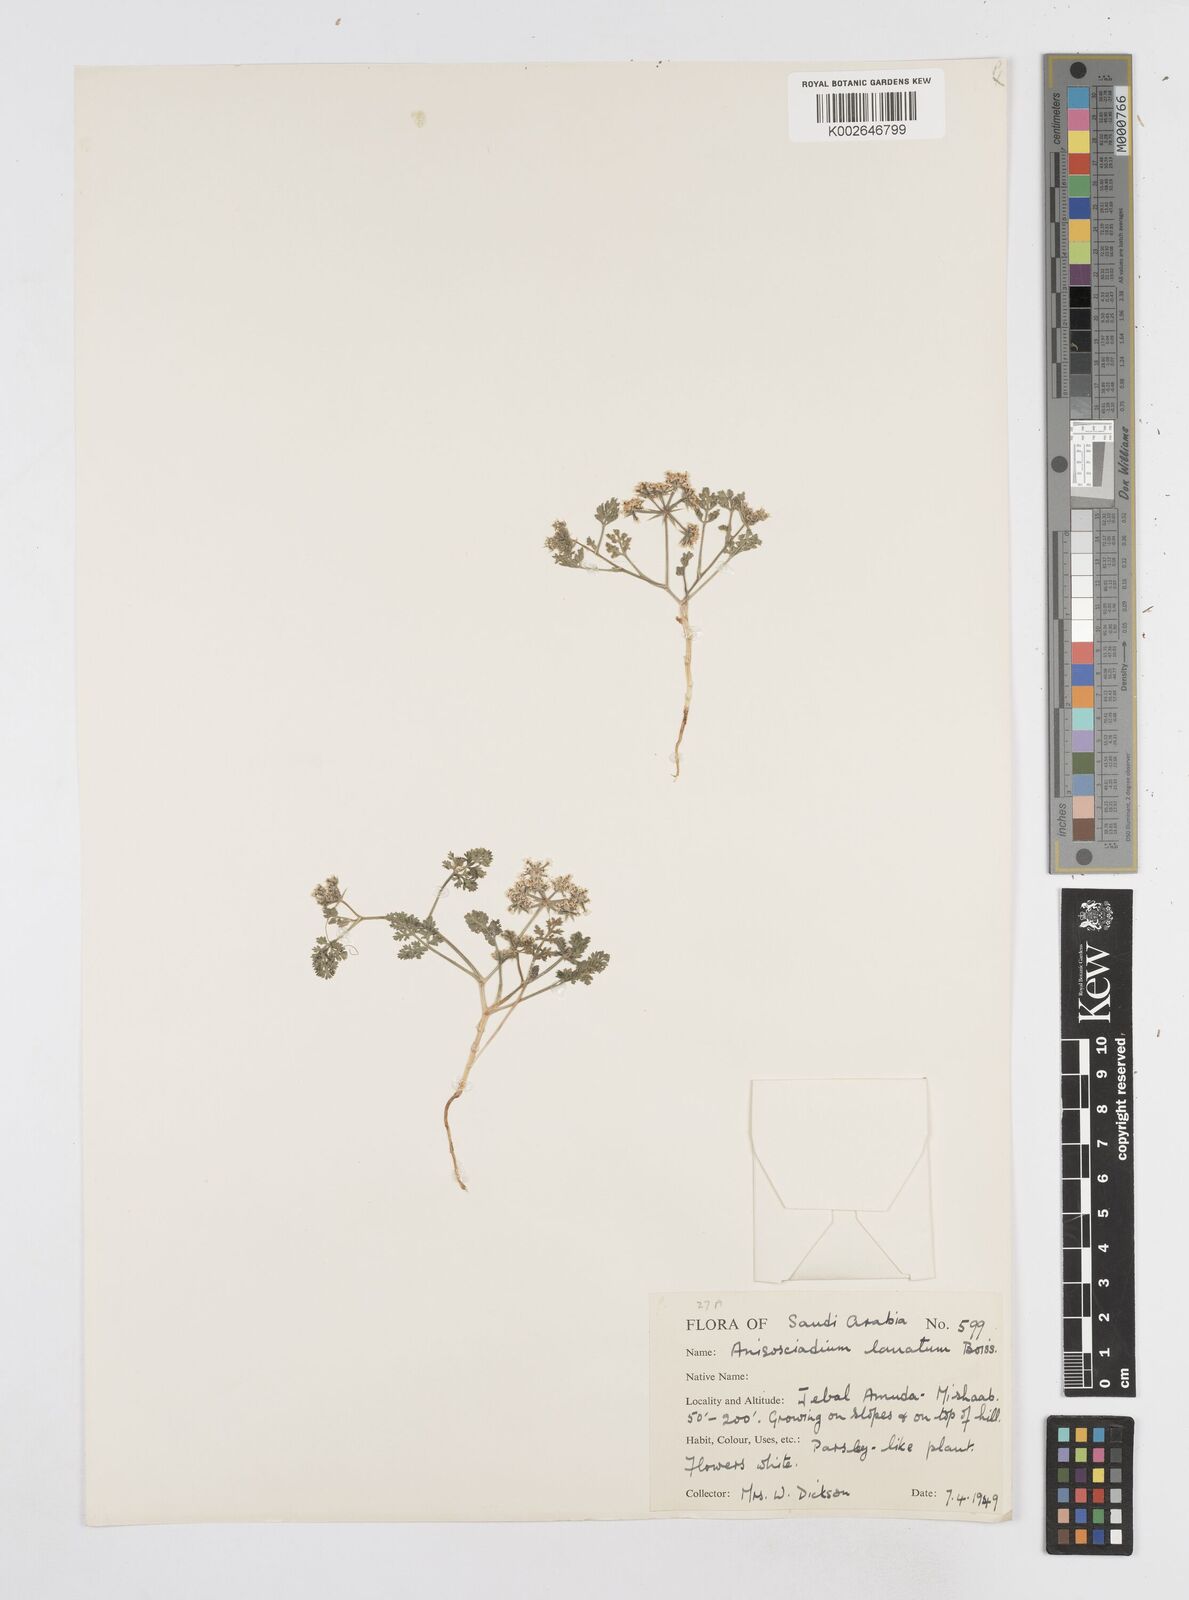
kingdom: Plantae
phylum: Tracheophyta
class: Magnoliopsida
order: Apiales
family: Apiaceae
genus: Anisosciadium
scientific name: Anisosciadium lanatum
